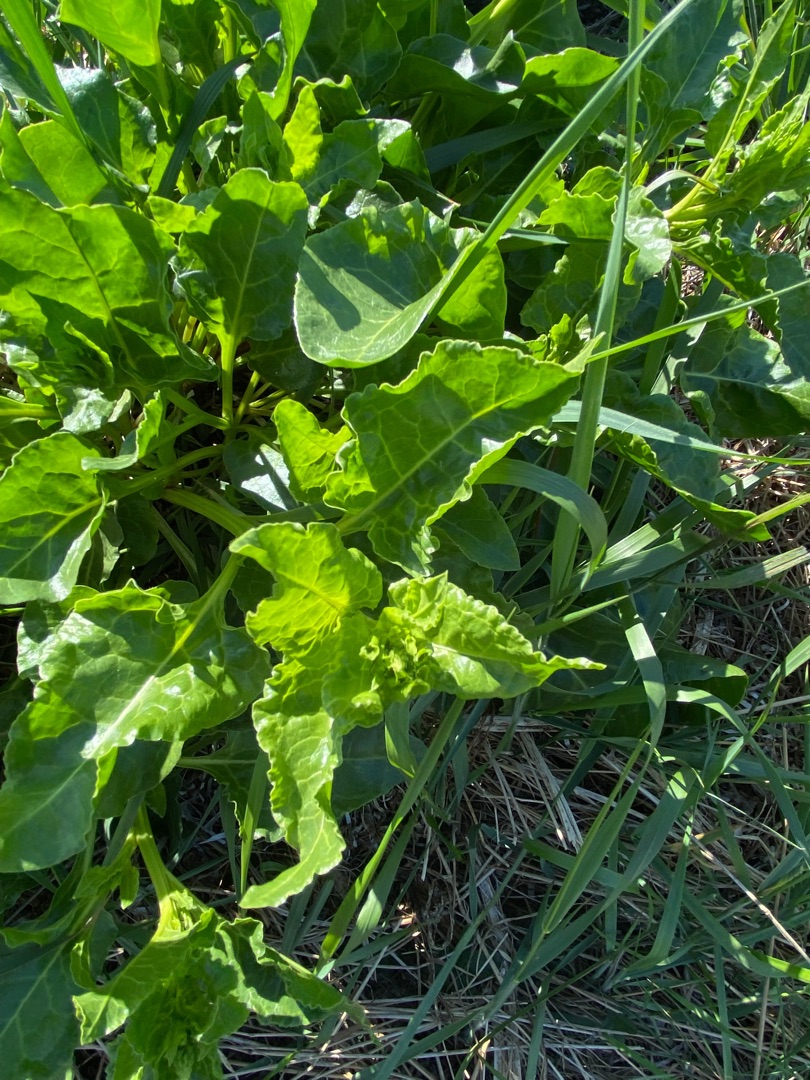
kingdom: Plantae
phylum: Tracheophyta
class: Magnoliopsida
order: Caryophyllales
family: Amaranthaceae
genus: Beta
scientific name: Beta maritima
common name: Strand-bede
